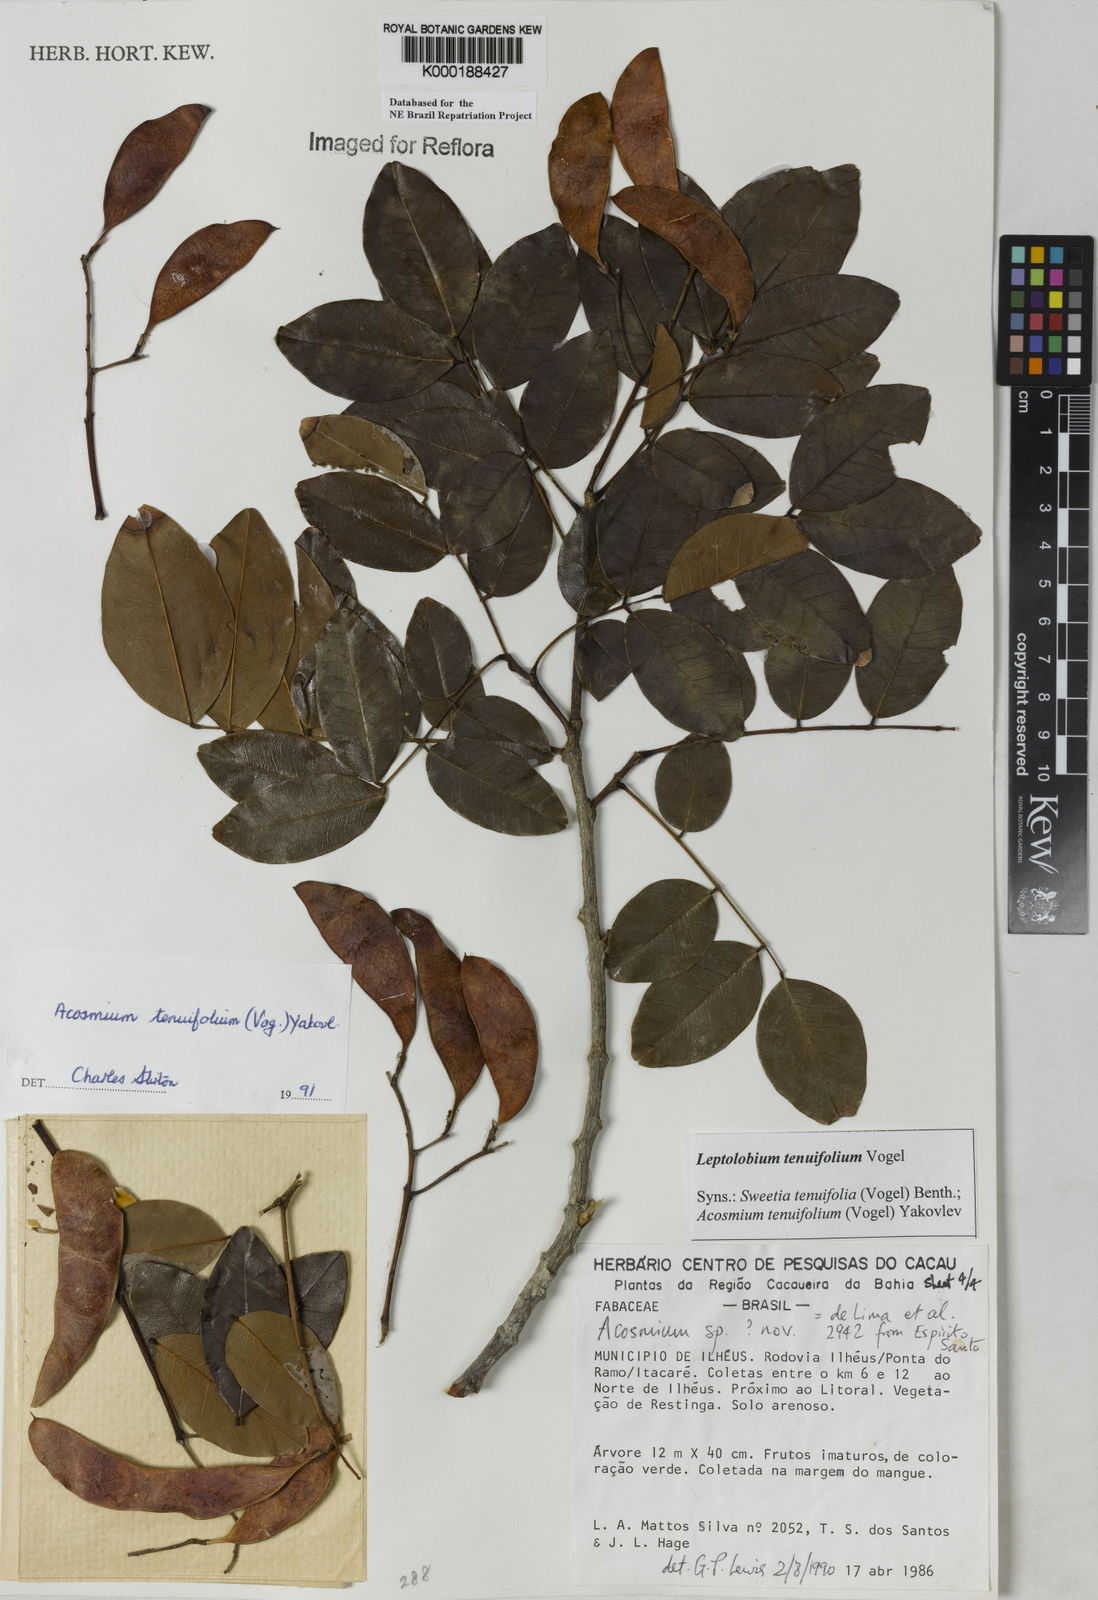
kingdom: Plantae
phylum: Tracheophyta
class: Magnoliopsida
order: Fabales
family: Fabaceae
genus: Leptolobium
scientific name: Leptolobium tenuifolium
